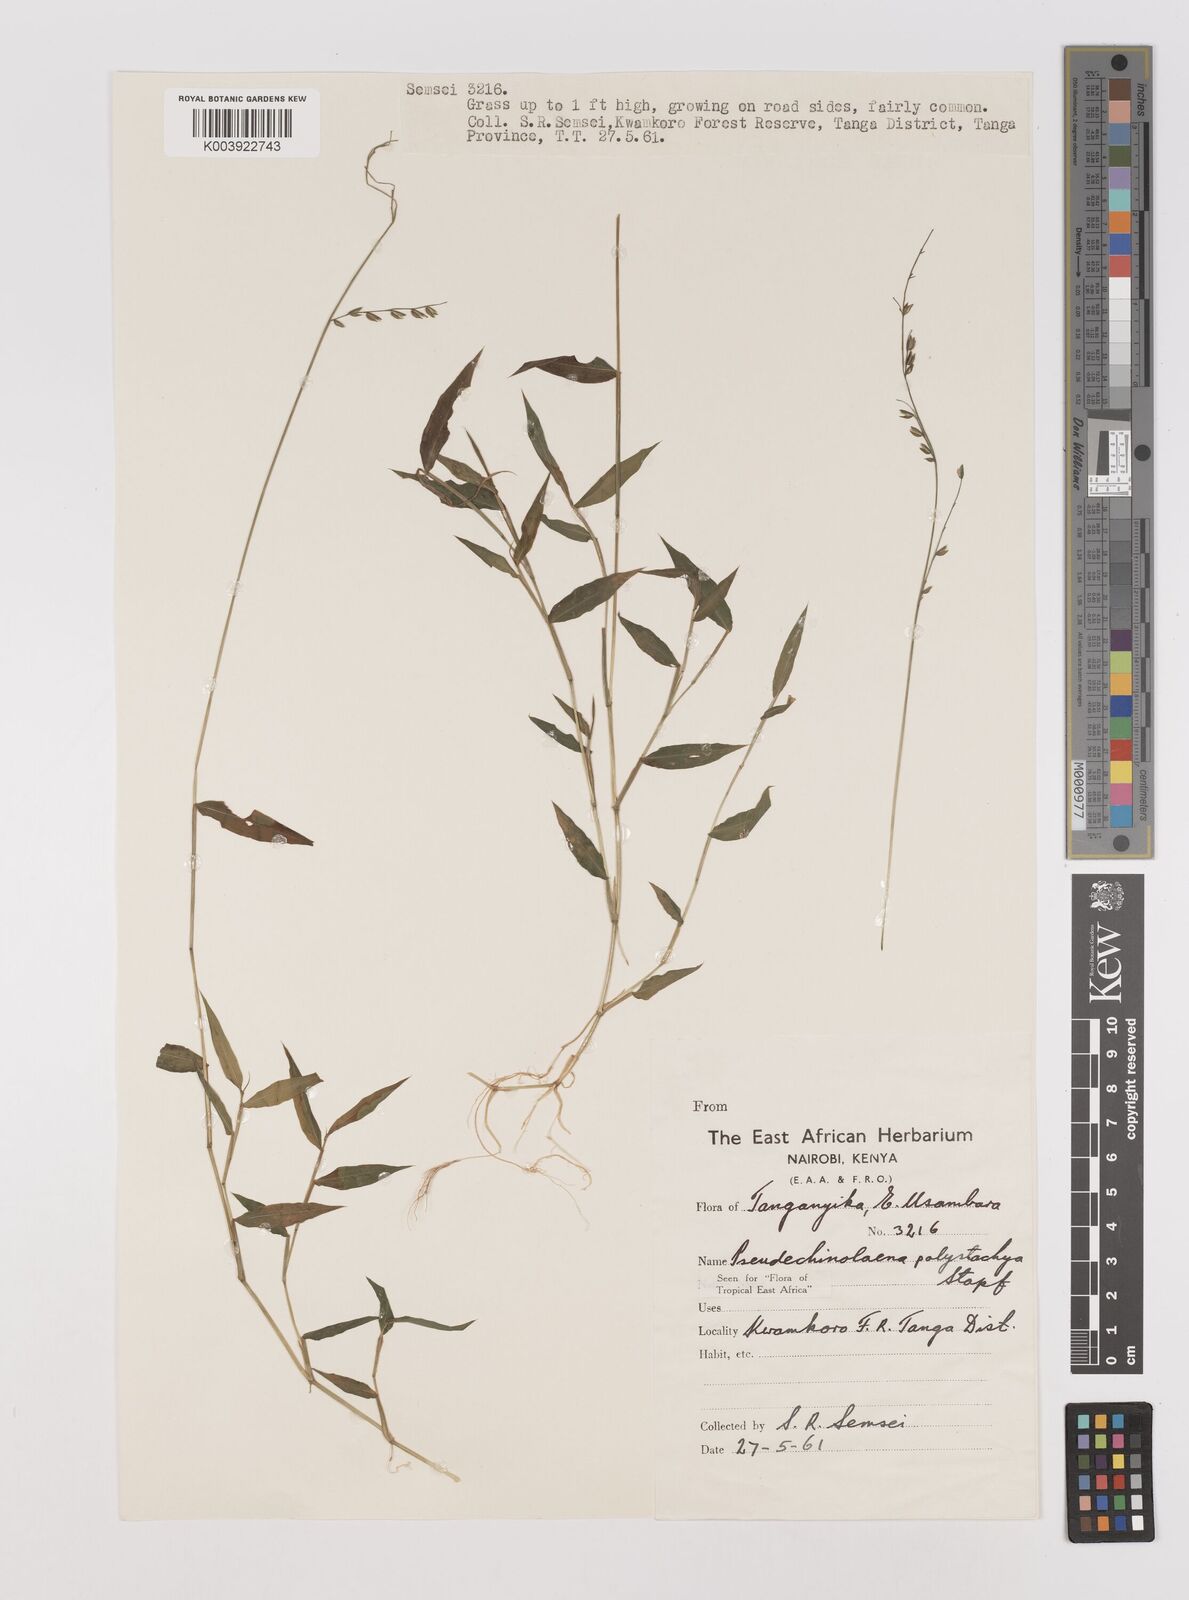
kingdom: Plantae
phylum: Tracheophyta
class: Liliopsida
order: Poales
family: Poaceae
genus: Pseudechinolaena
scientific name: Pseudechinolaena polystachya
